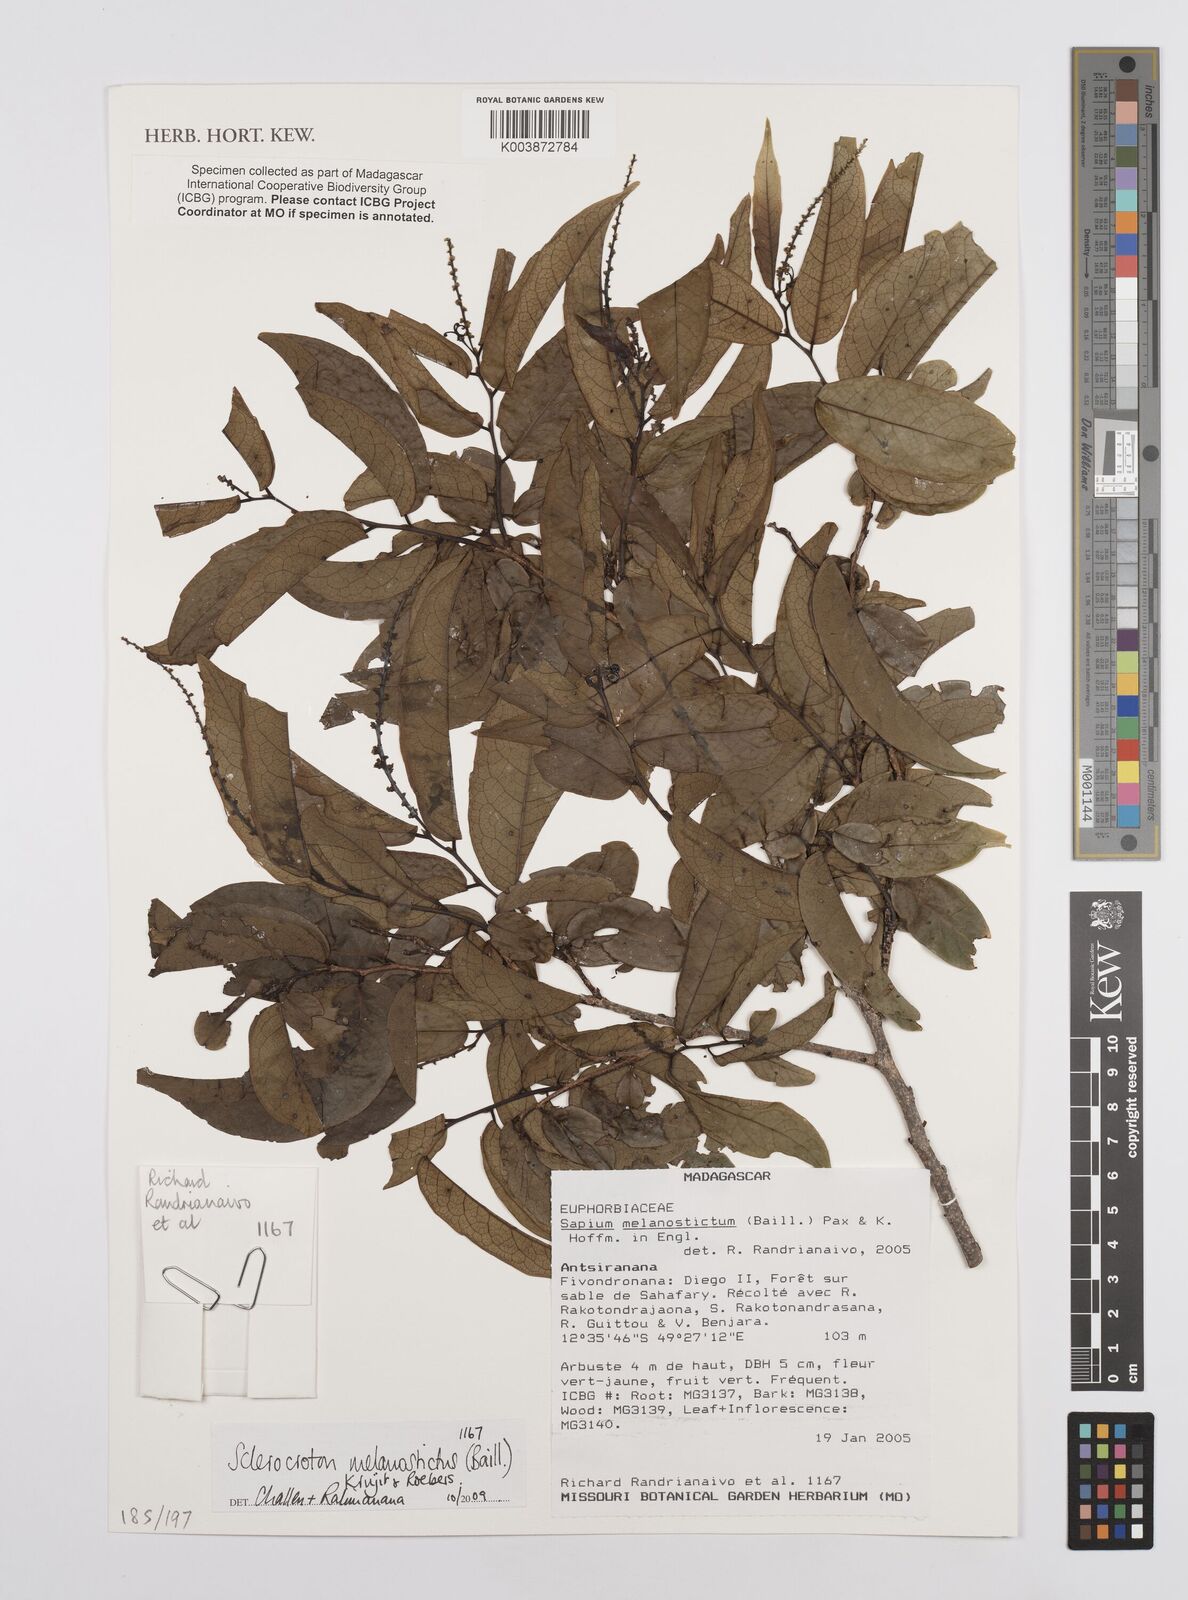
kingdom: Plantae
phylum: Tracheophyta
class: Magnoliopsida
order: Malpighiales
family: Euphorbiaceae
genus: Sclerocroton
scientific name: Sclerocroton melanostictus
